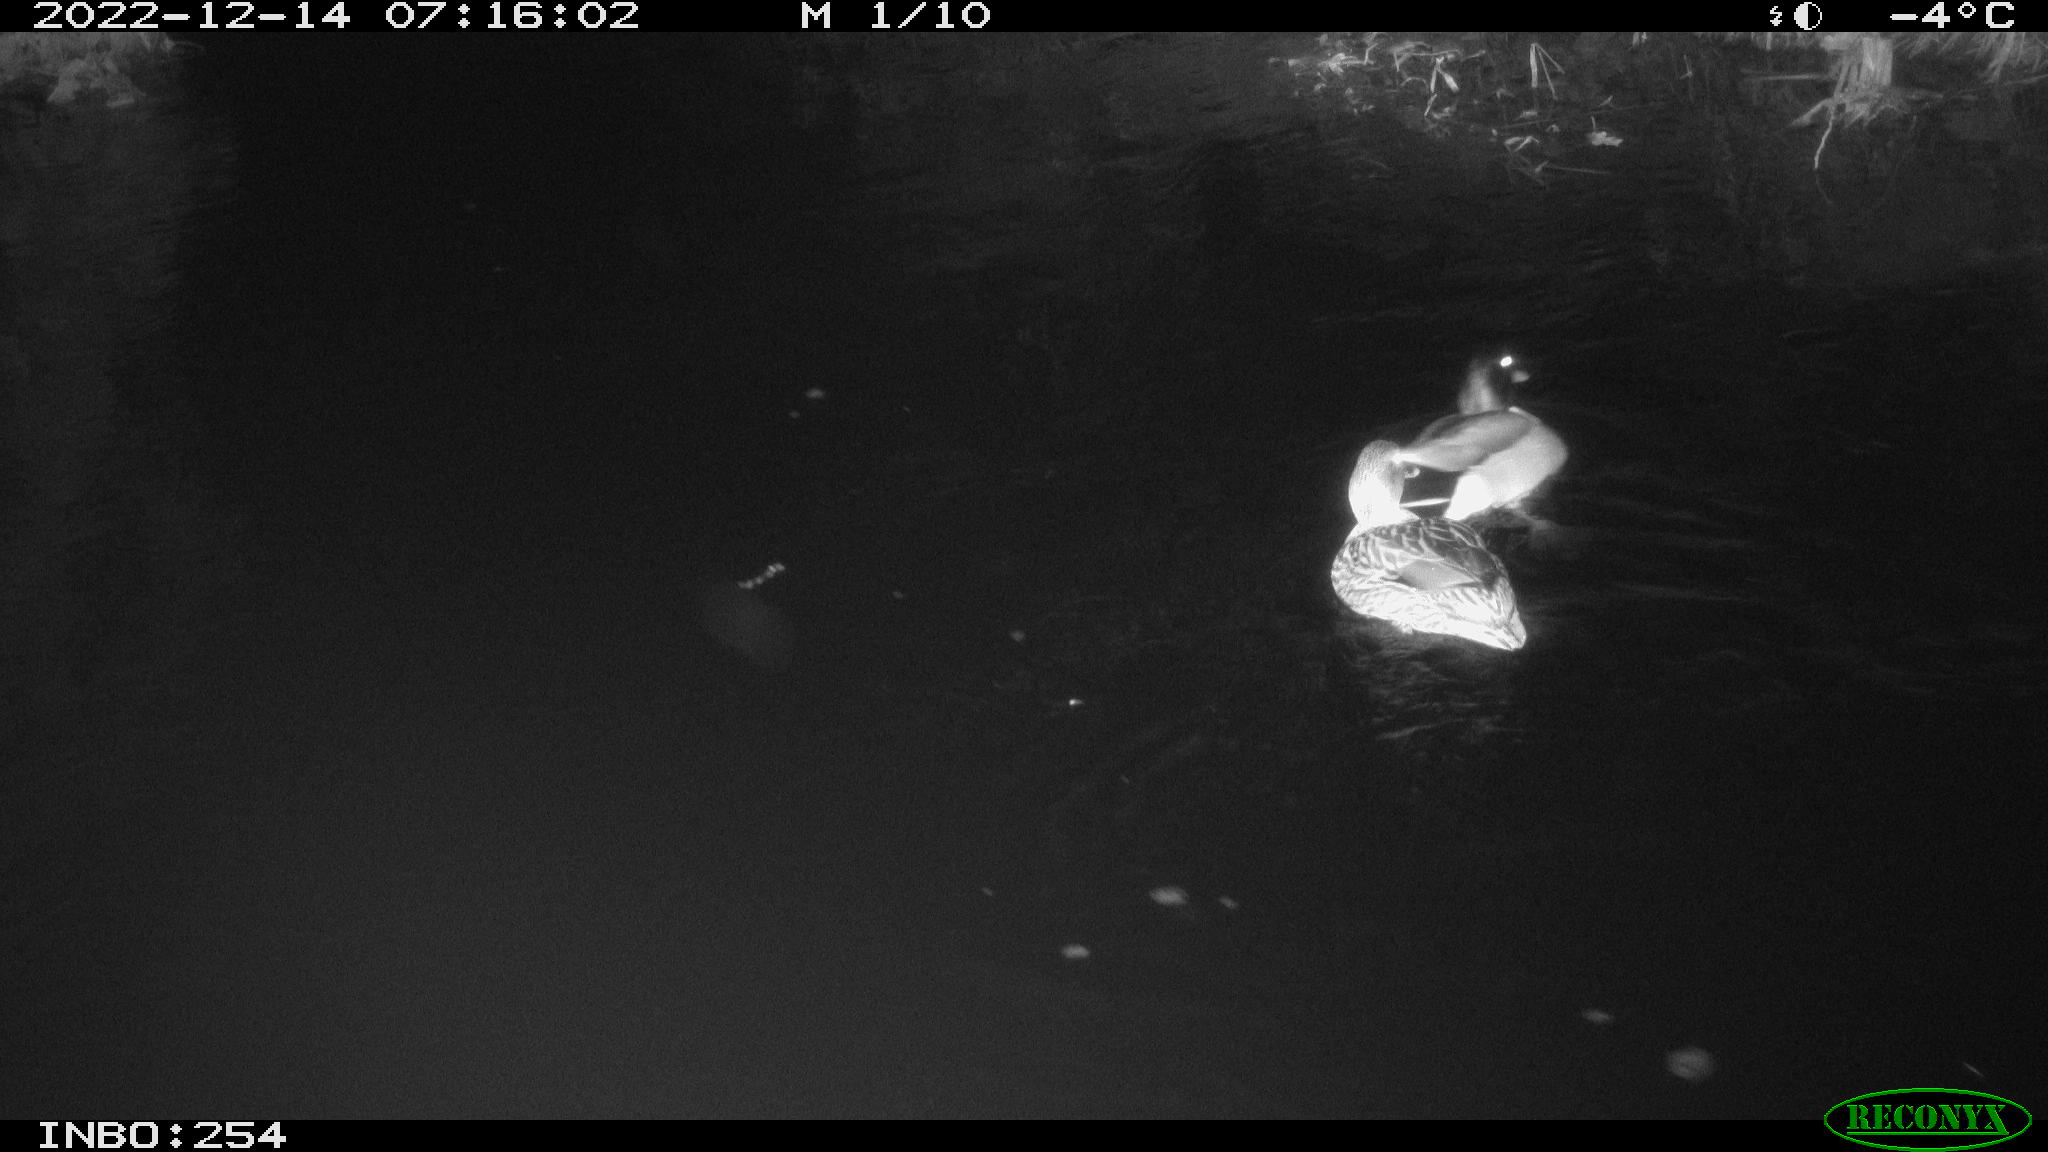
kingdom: Animalia
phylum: Chordata
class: Aves
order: Anseriformes
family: Anatidae
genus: Anas
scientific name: Anas
